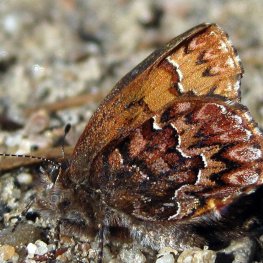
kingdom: Animalia
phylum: Arthropoda
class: Insecta
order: Lepidoptera
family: Lycaenidae
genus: Incisalia
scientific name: Incisalia eryphon
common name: Western Pine Elfin
